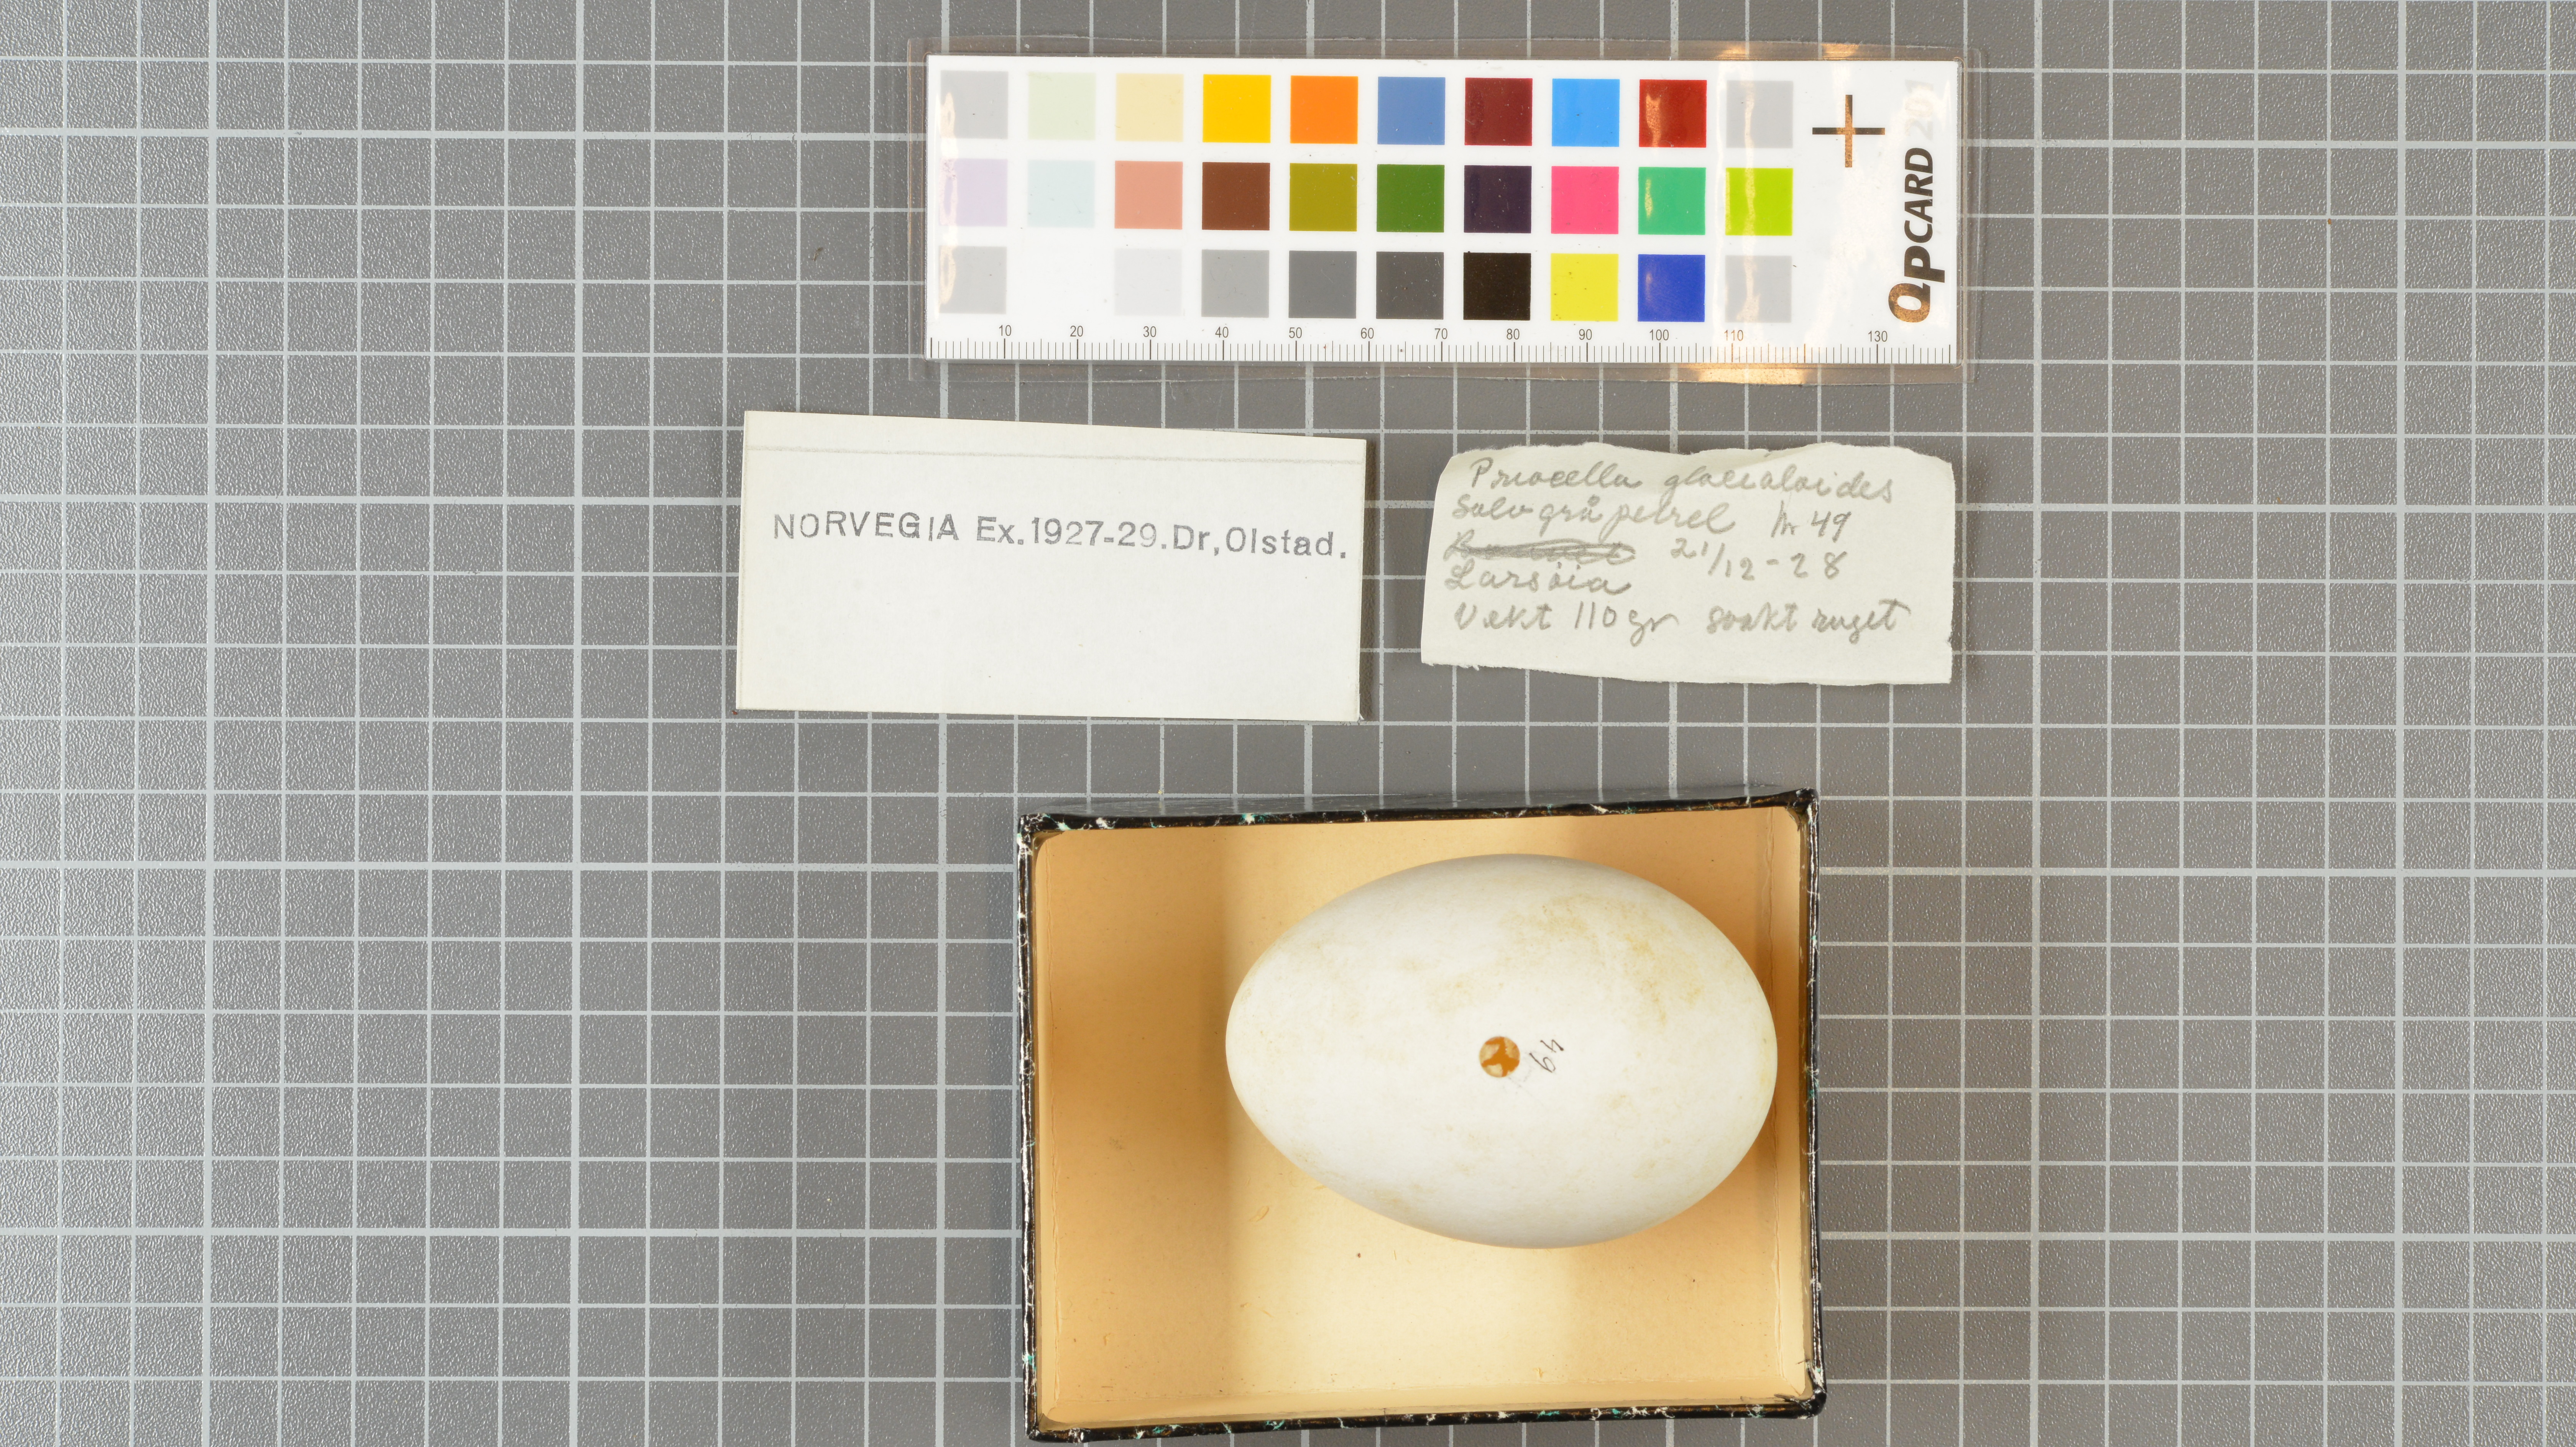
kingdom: Animalia
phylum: Chordata
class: Aves
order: Procellariiformes
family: Procellariidae
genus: Fulmarus
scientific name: Fulmarus glacialoides
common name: Southern fulmar
